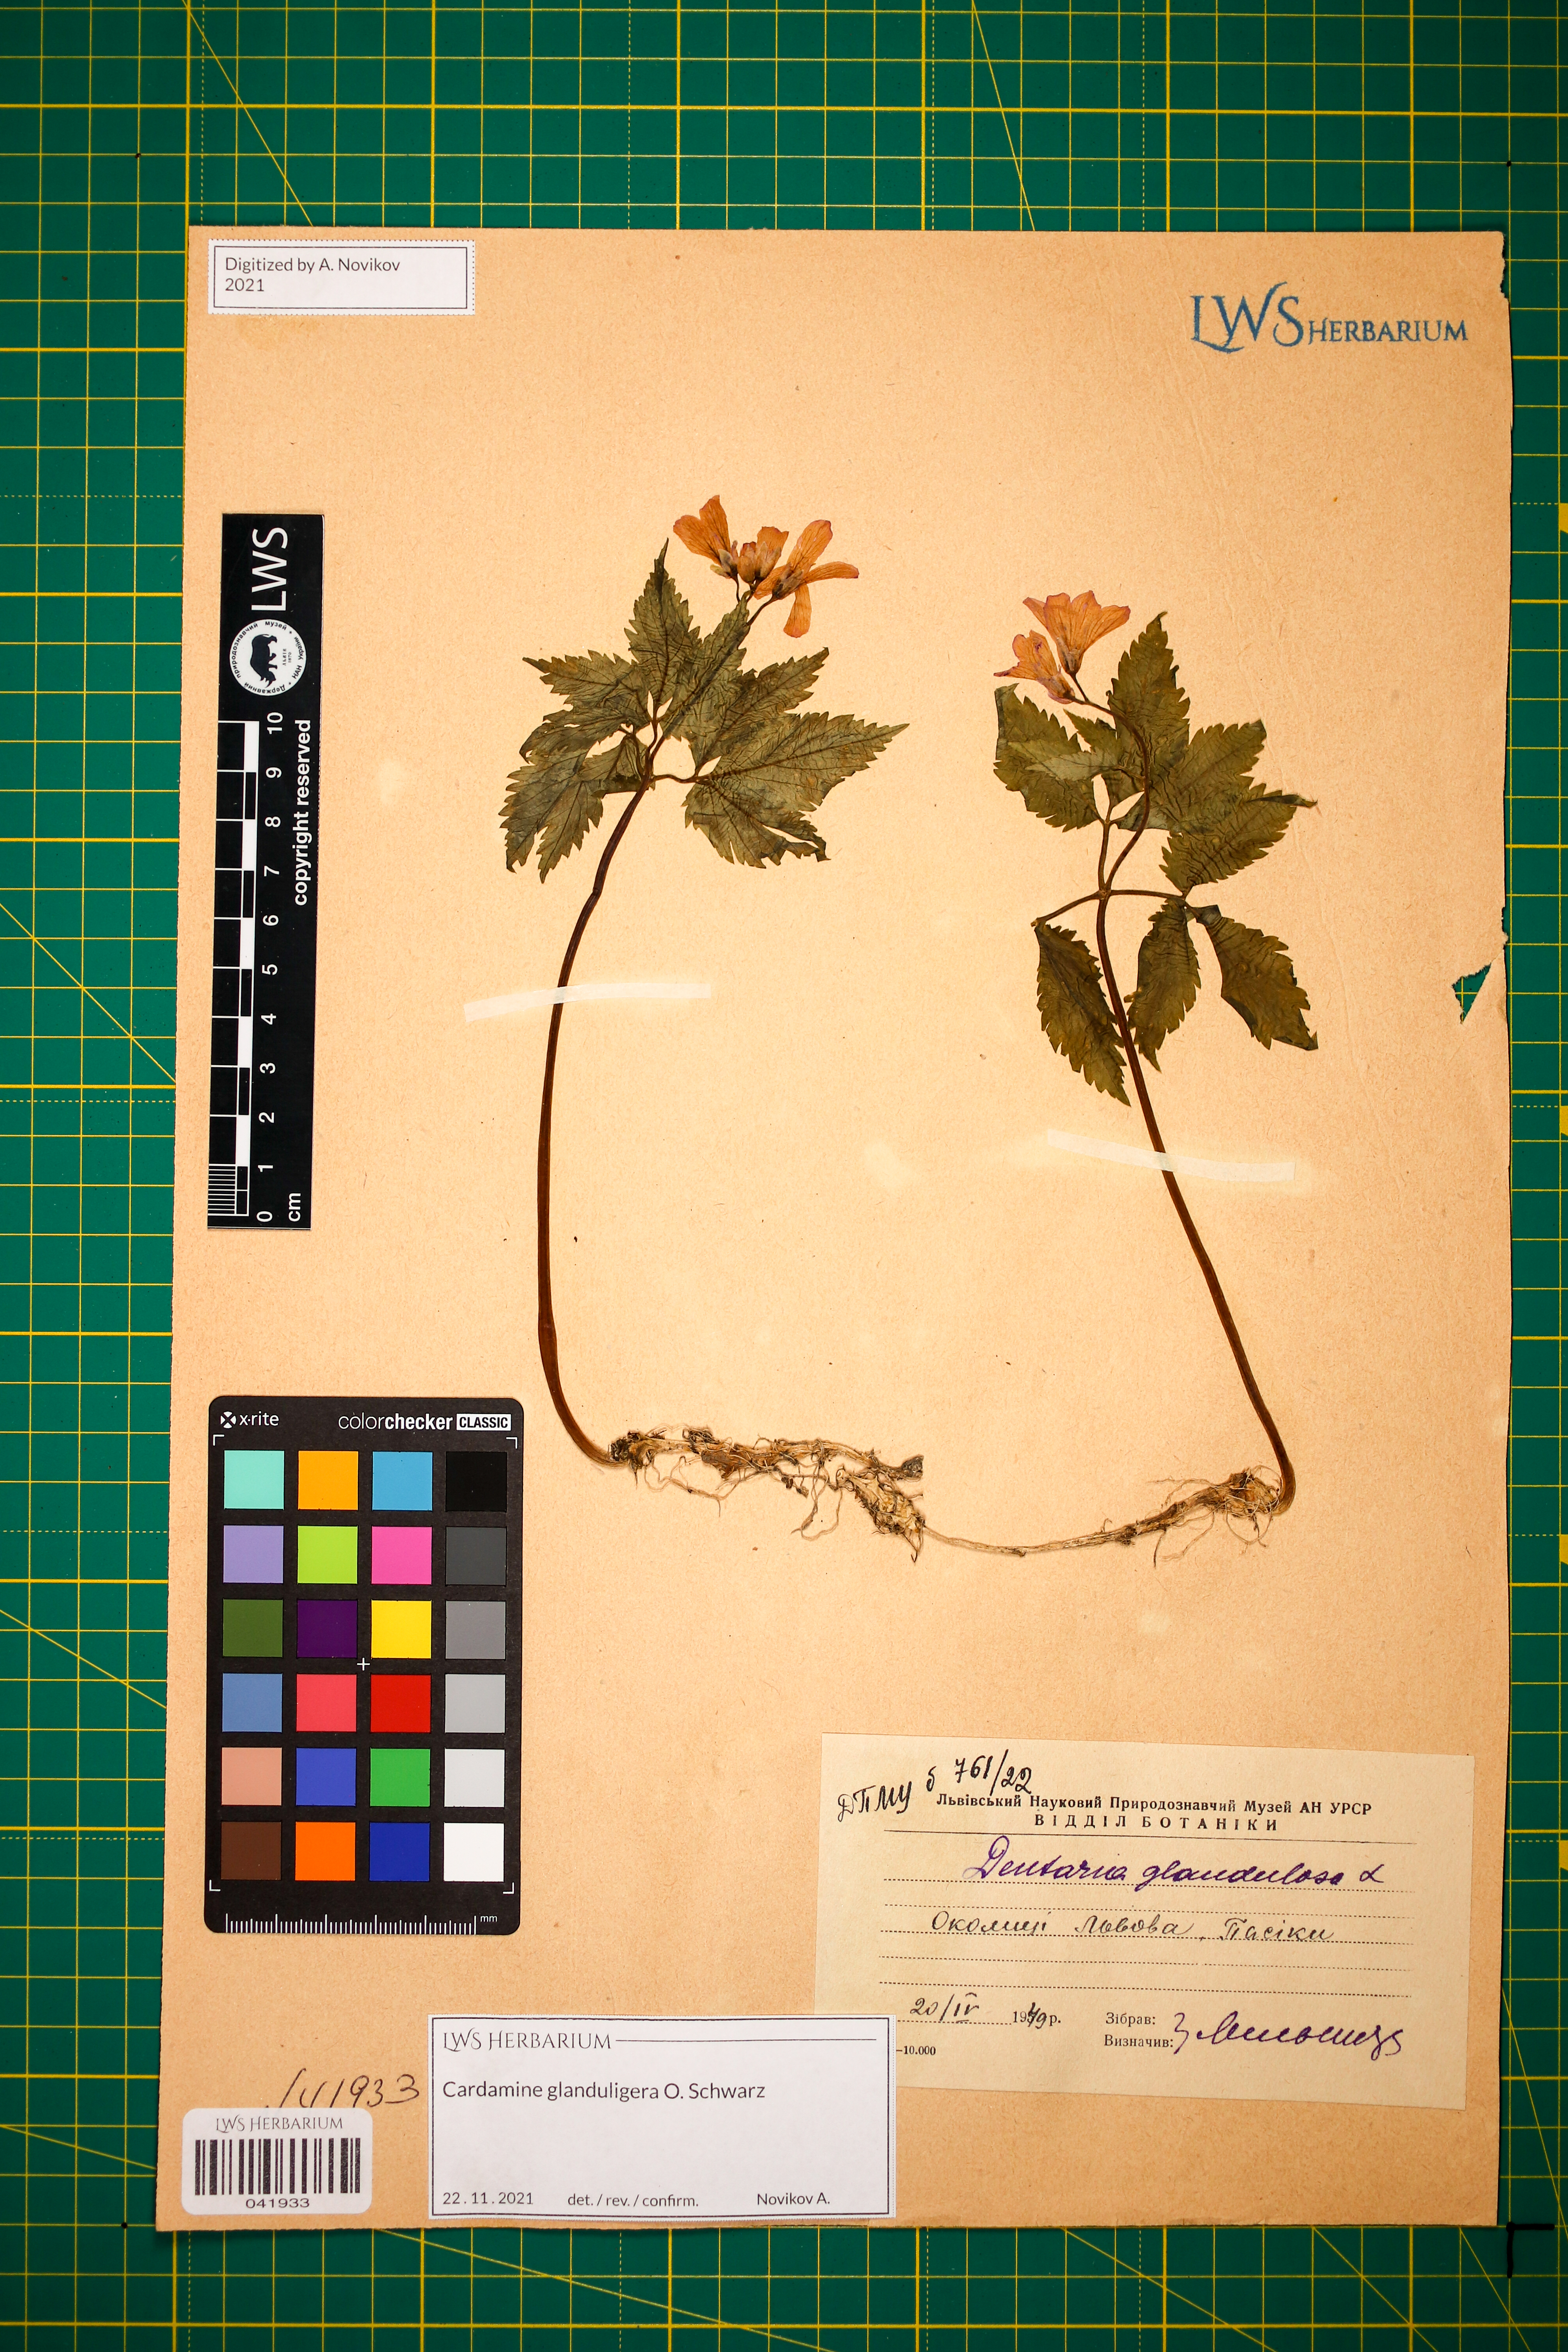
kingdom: Plantae
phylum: Tracheophyta
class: Magnoliopsida
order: Brassicales
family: Brassicaceae
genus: Cardamine
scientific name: Cardamine glanduligera
